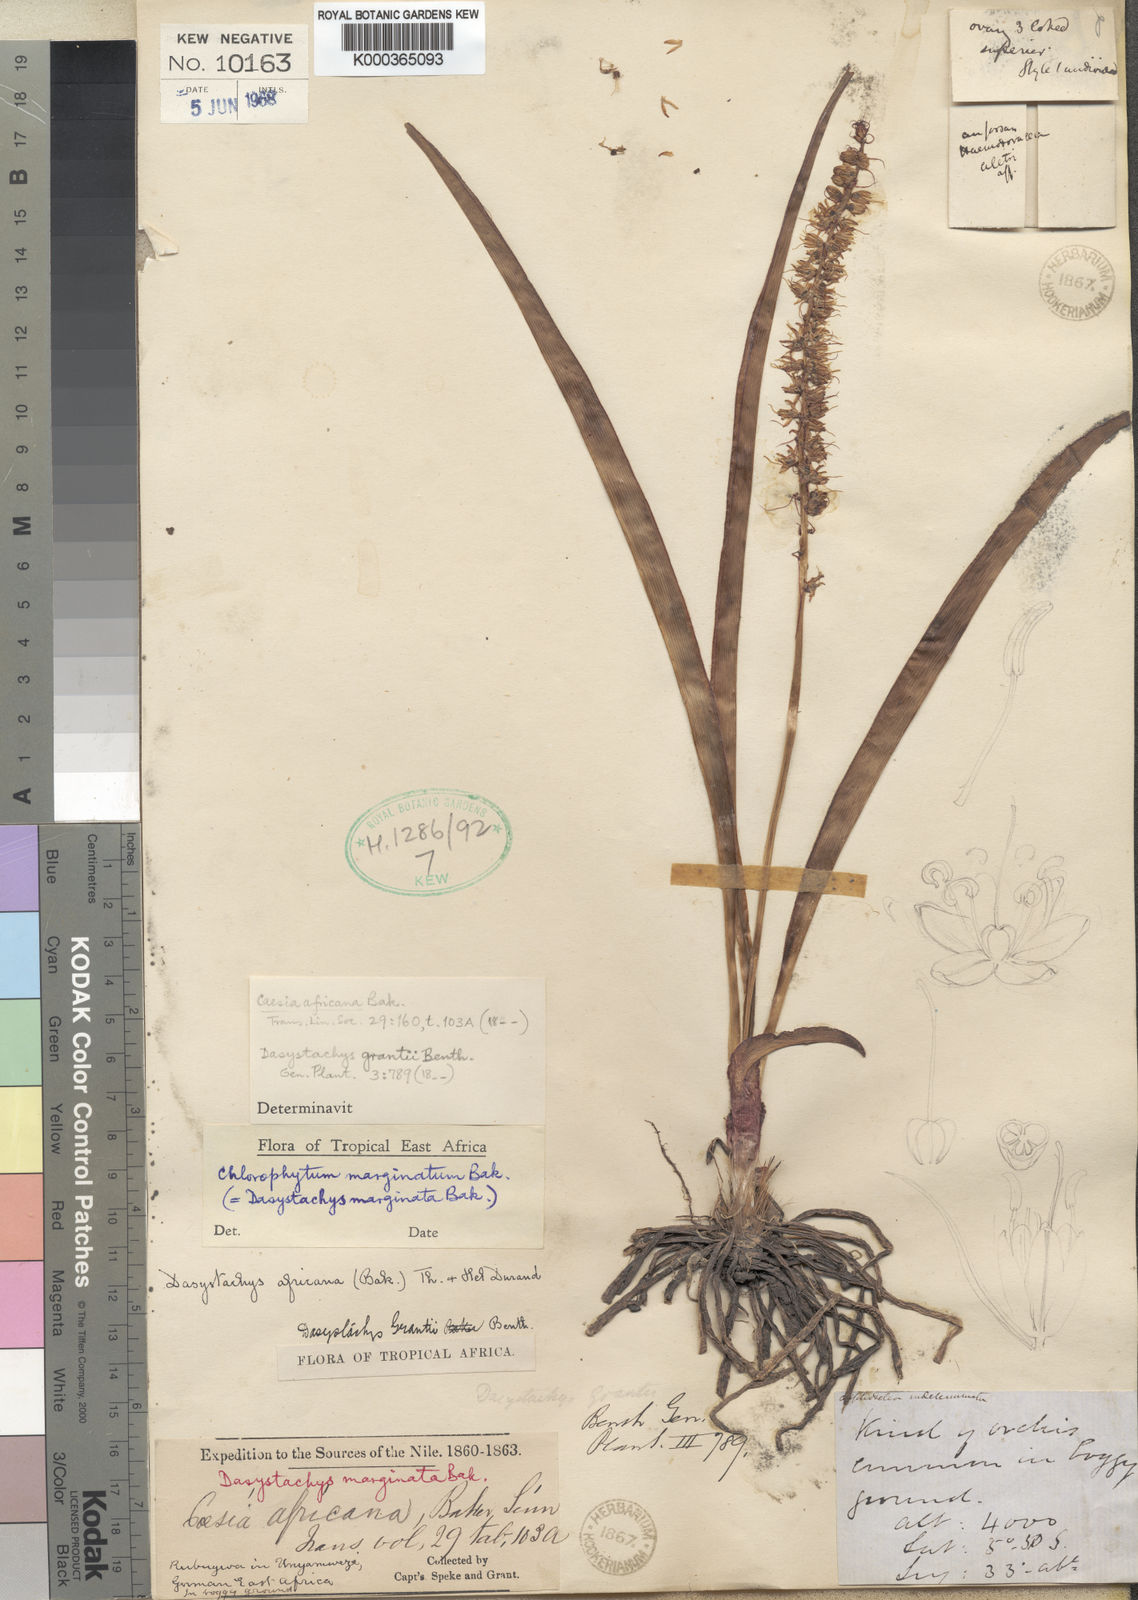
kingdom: Plantae
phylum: Tracheophyta
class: Liliopsida
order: Asparagales
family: Asparagaceae
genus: Chlorophytum
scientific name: Chlorophytum
